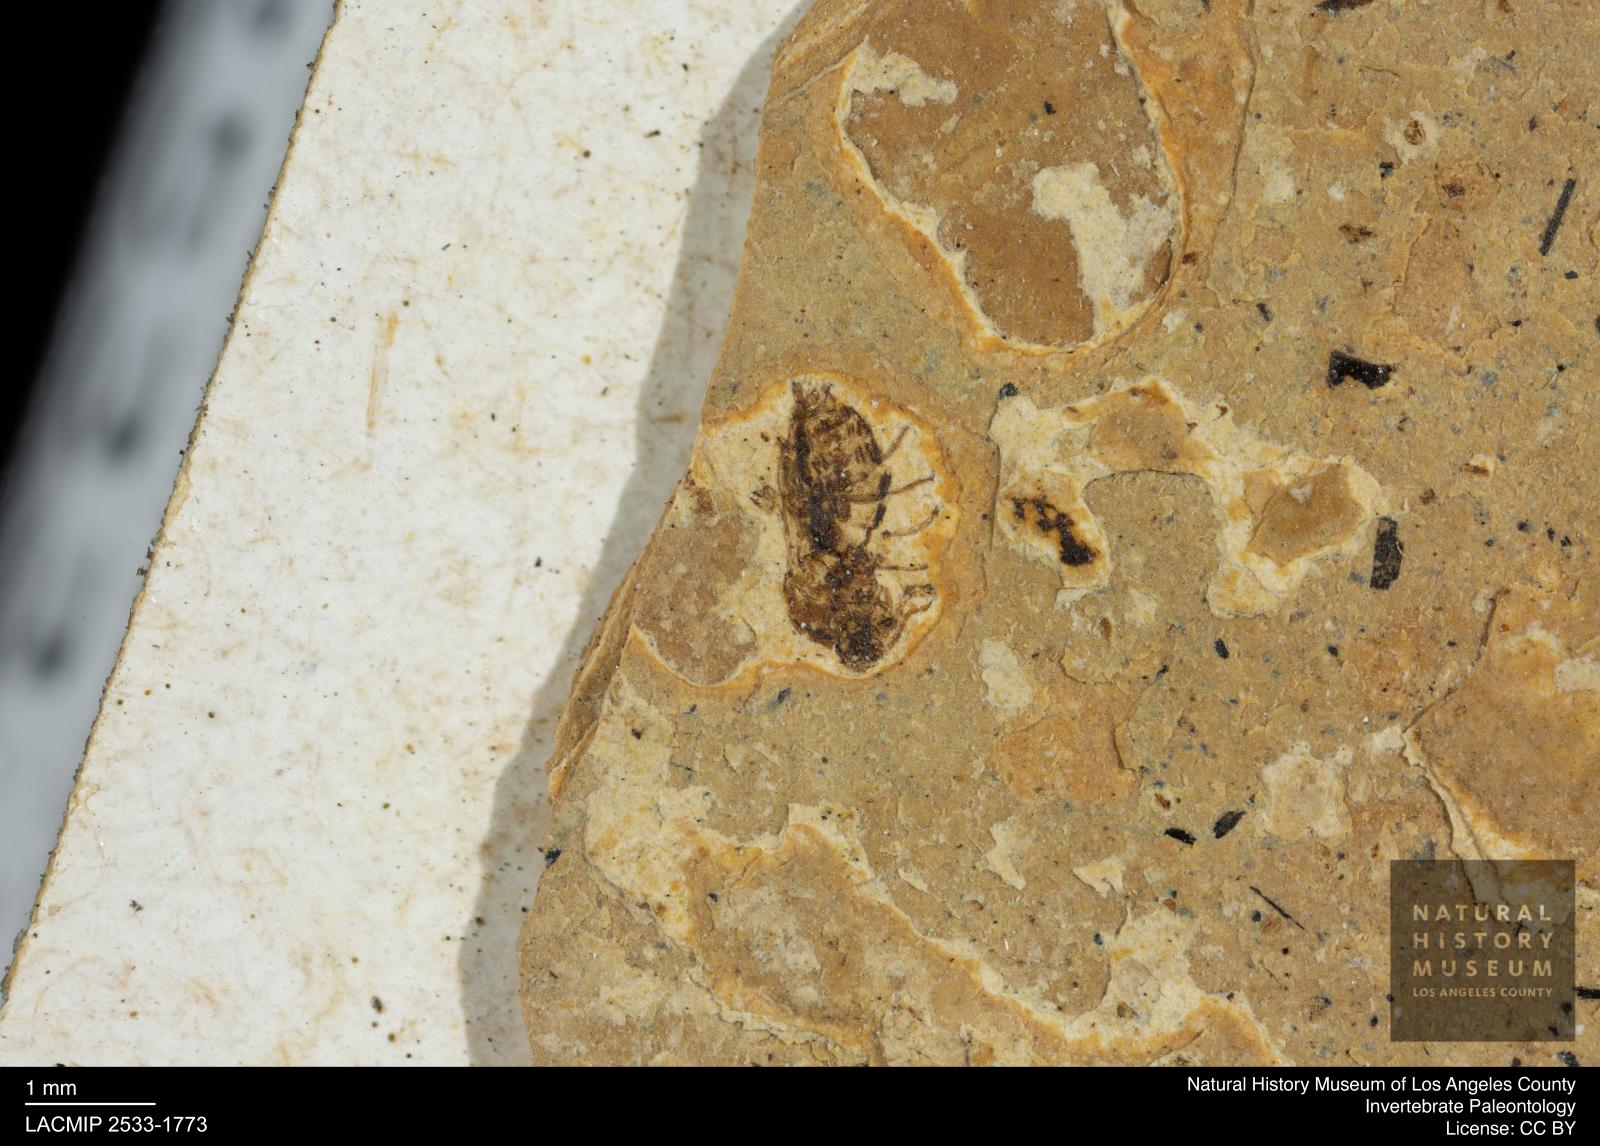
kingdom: Animalia
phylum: Arthropoda
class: Insecta
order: Diptera
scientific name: Diptera
